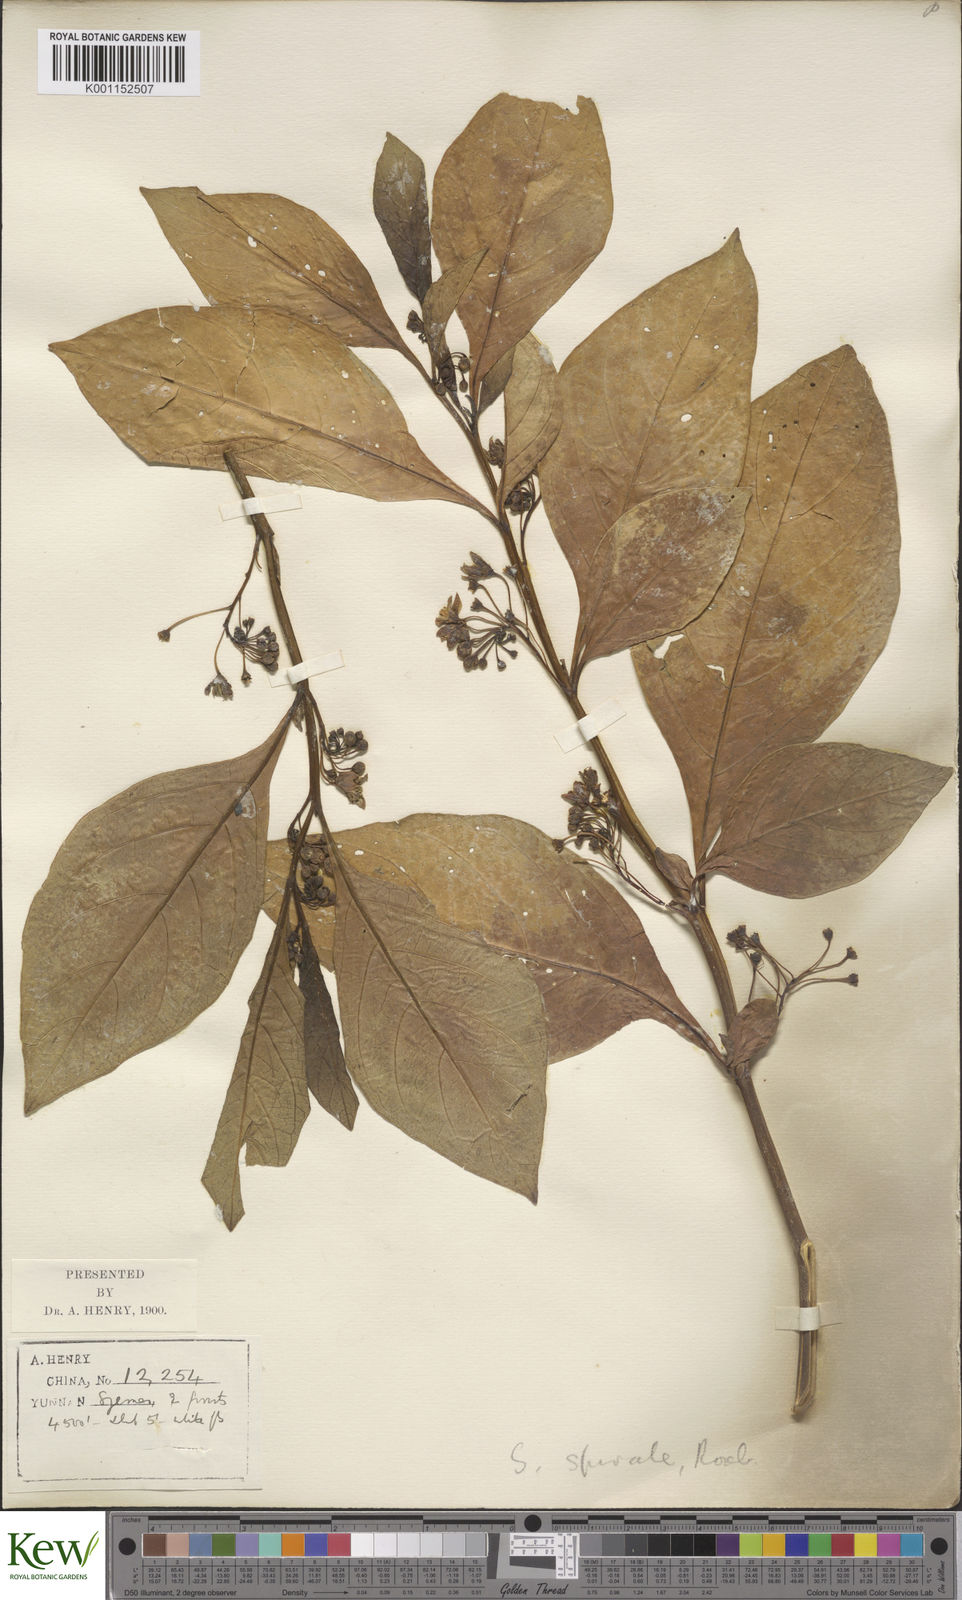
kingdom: Plantae
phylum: Tracheophyta
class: Magnoliopsida
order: Solanales
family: Solanaceae
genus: Solanum
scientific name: Solanum spirale
